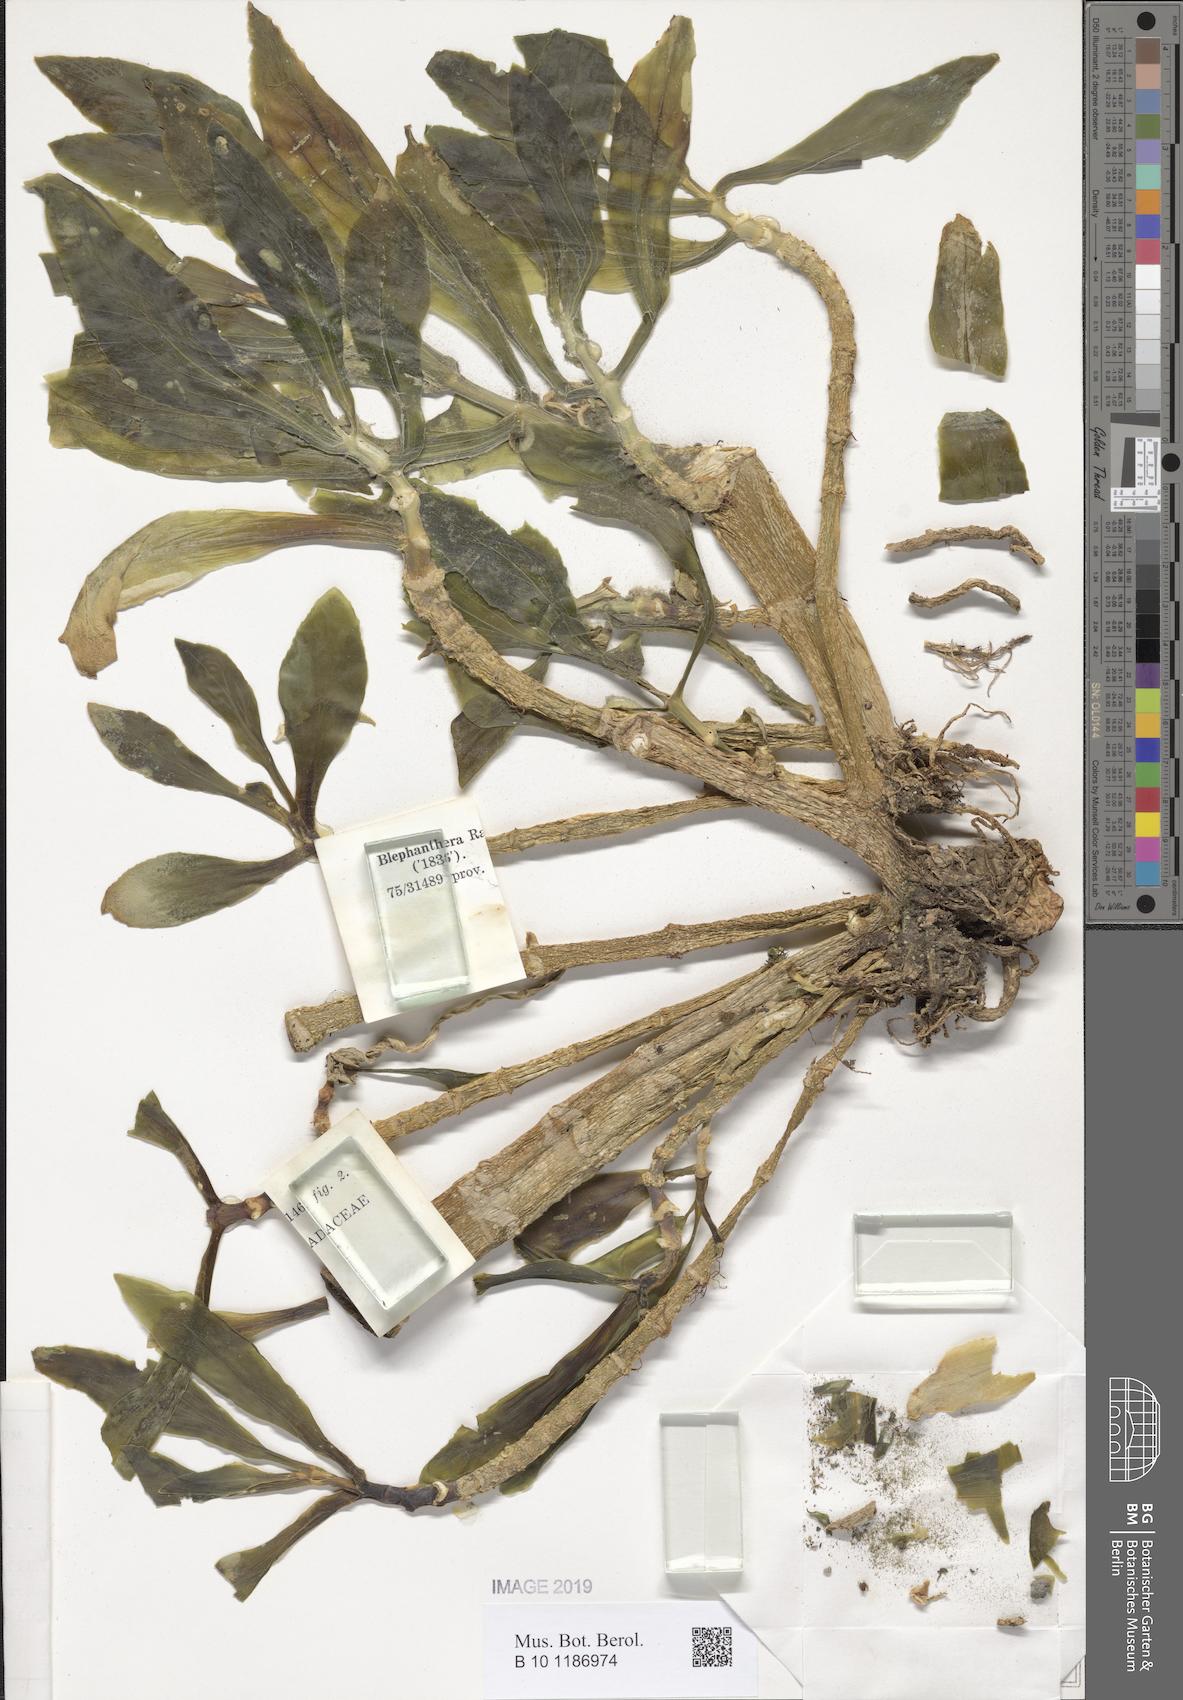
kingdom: Plantae
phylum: Tracheophyta
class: Magnoliopsida
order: Saxifragales
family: Crassulaceae
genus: Kalanchoe
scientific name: Kalanchoe yemensis
